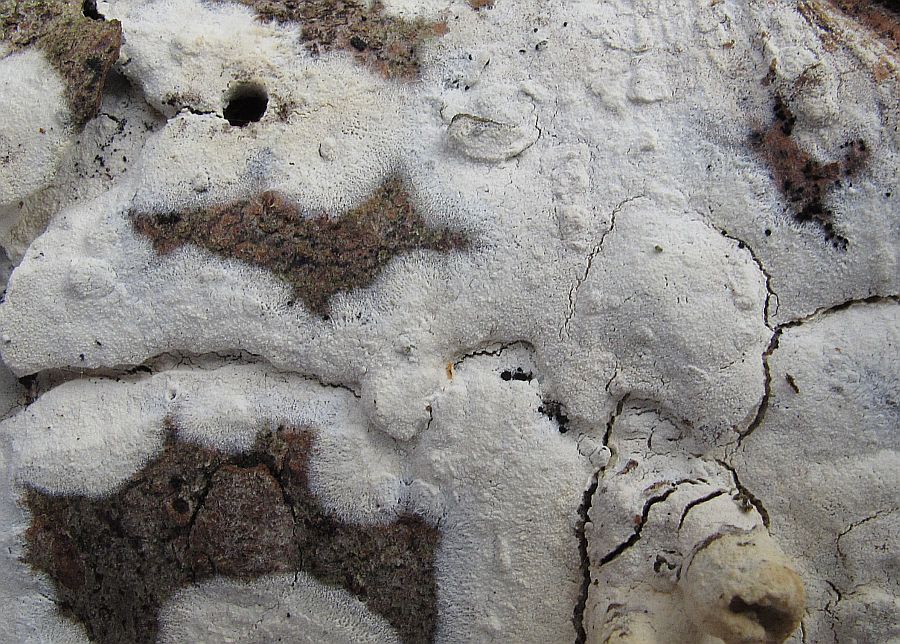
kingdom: Fungi
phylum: Basidiomycota
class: Agaricomycetes
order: Polyporales
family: Hyphodermataceae
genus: Hyphoderma
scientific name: Hyphoderma setigerum
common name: håret kalkskind
